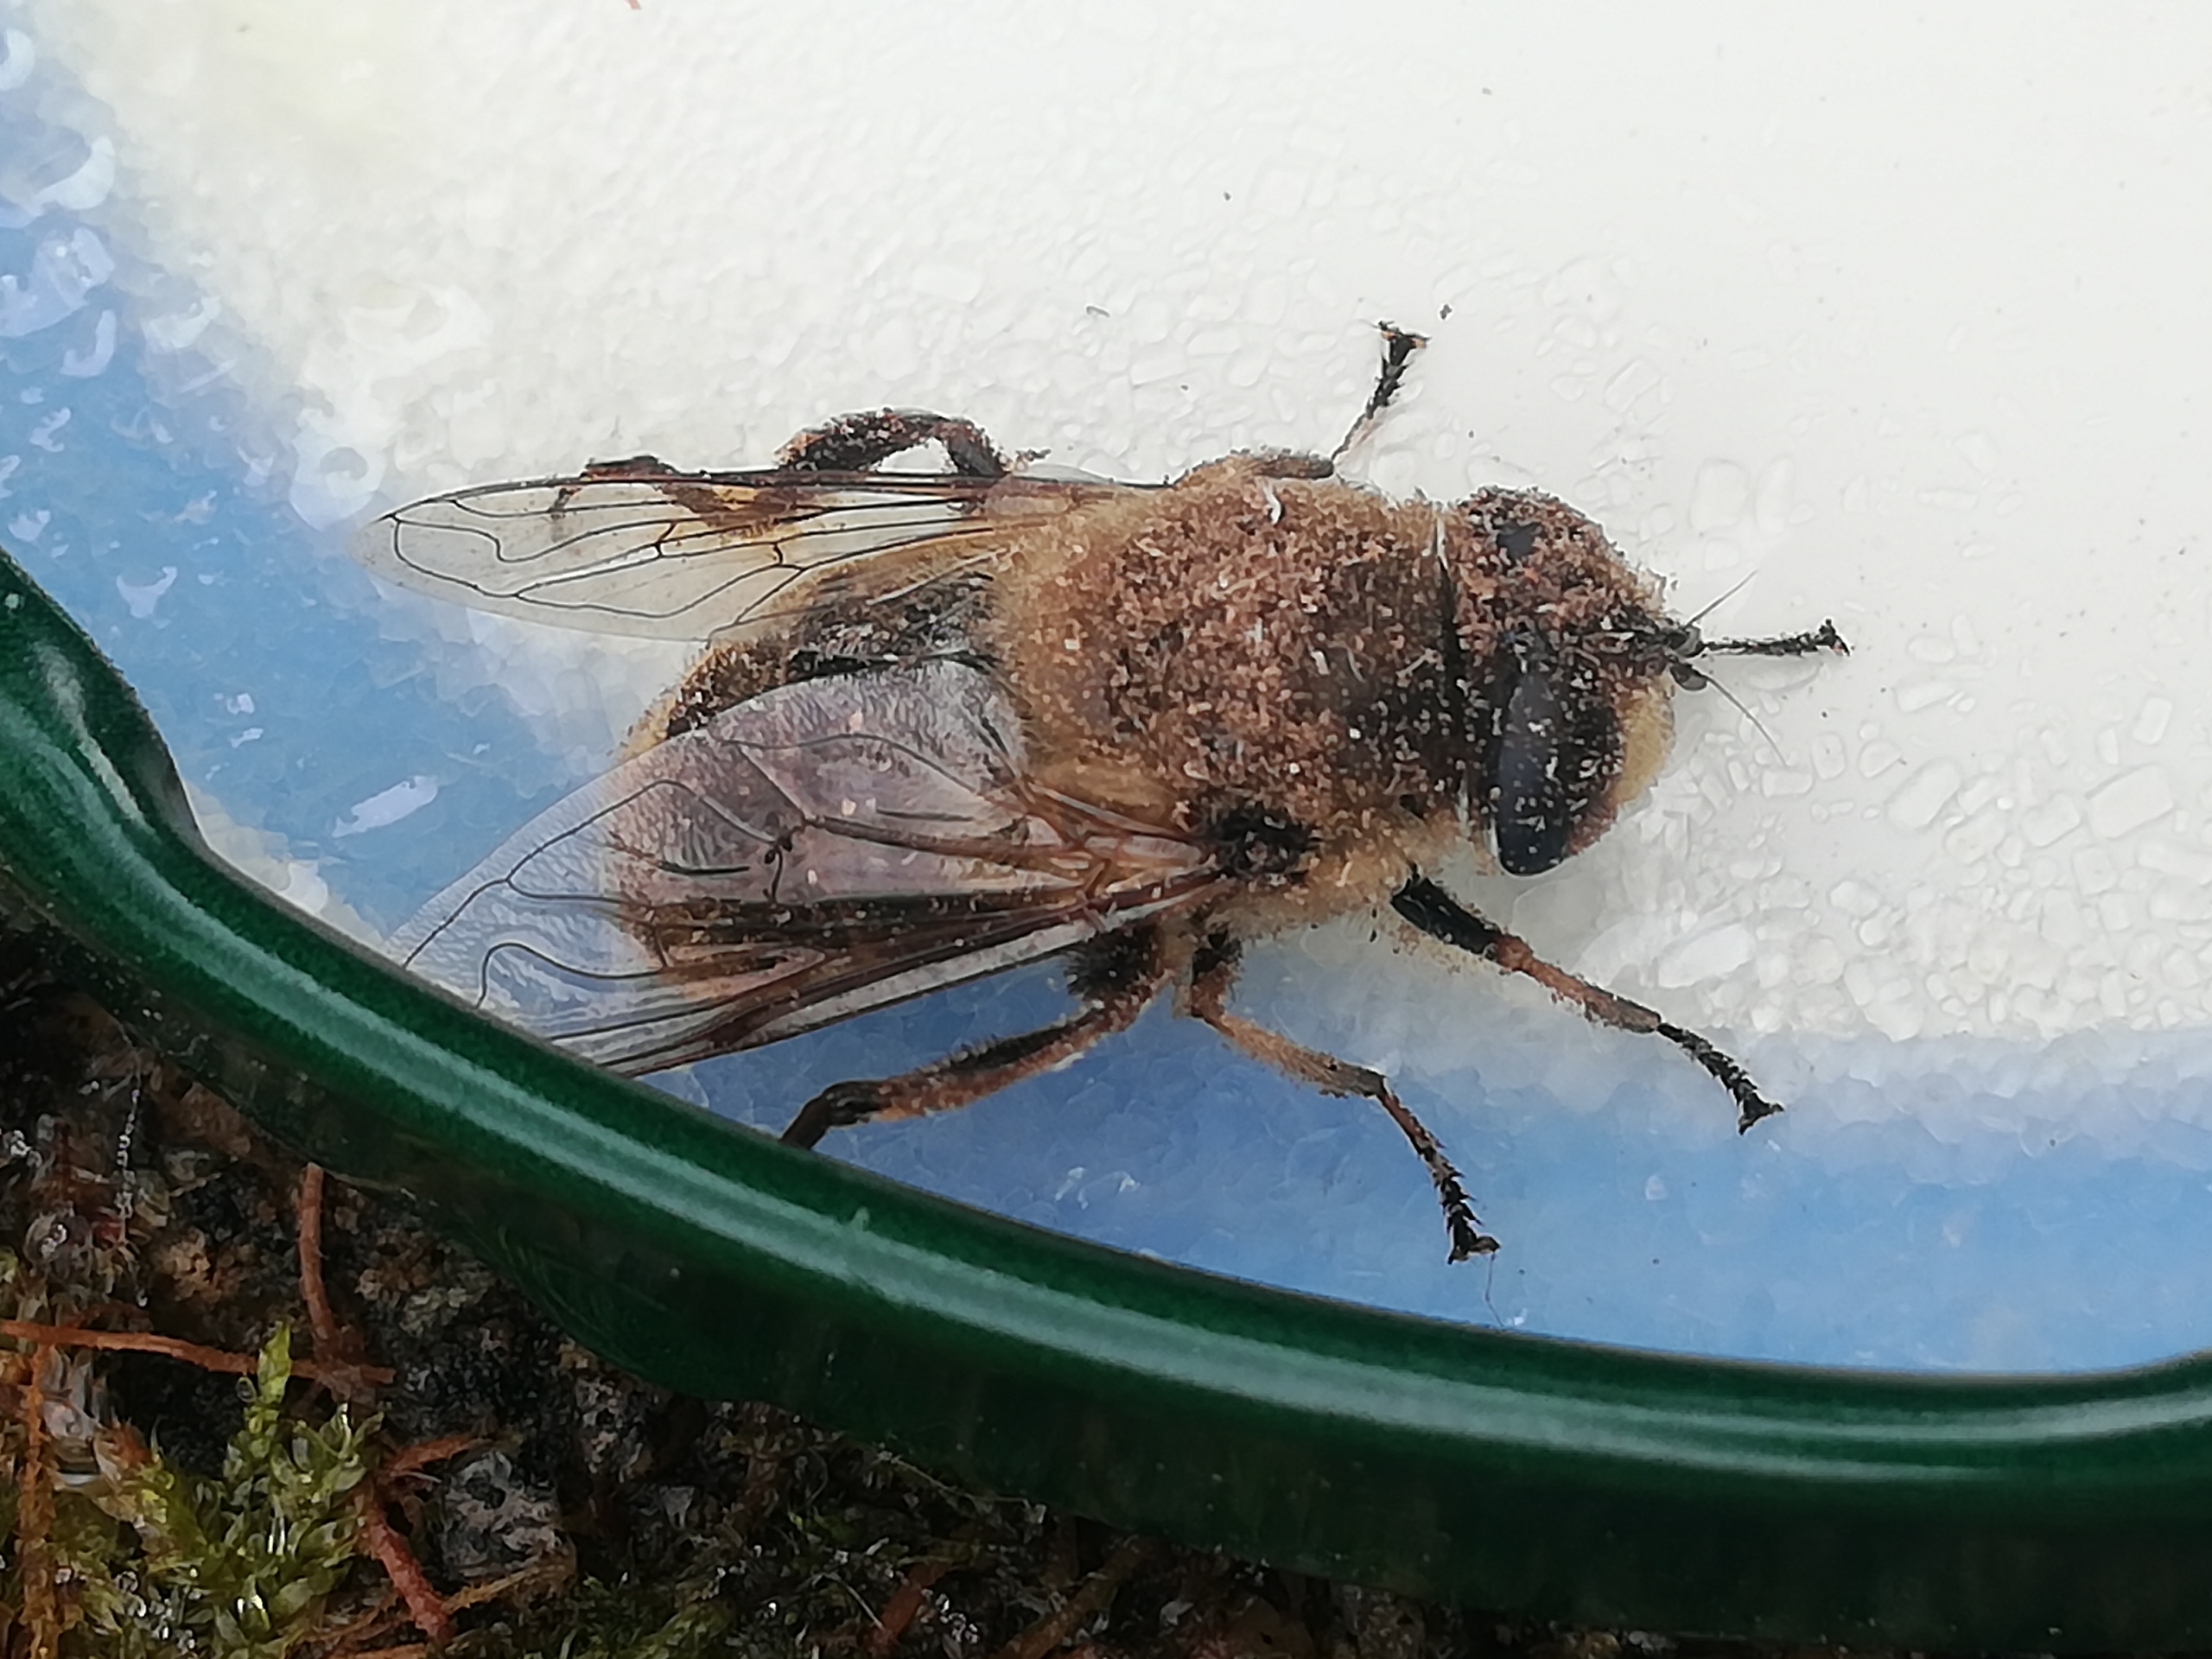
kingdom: Animalia
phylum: Arthropoda
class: Insecta
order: Diptera
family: Syrphidae
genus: Eristalis
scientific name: Eristalis tenax
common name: Droneflue
